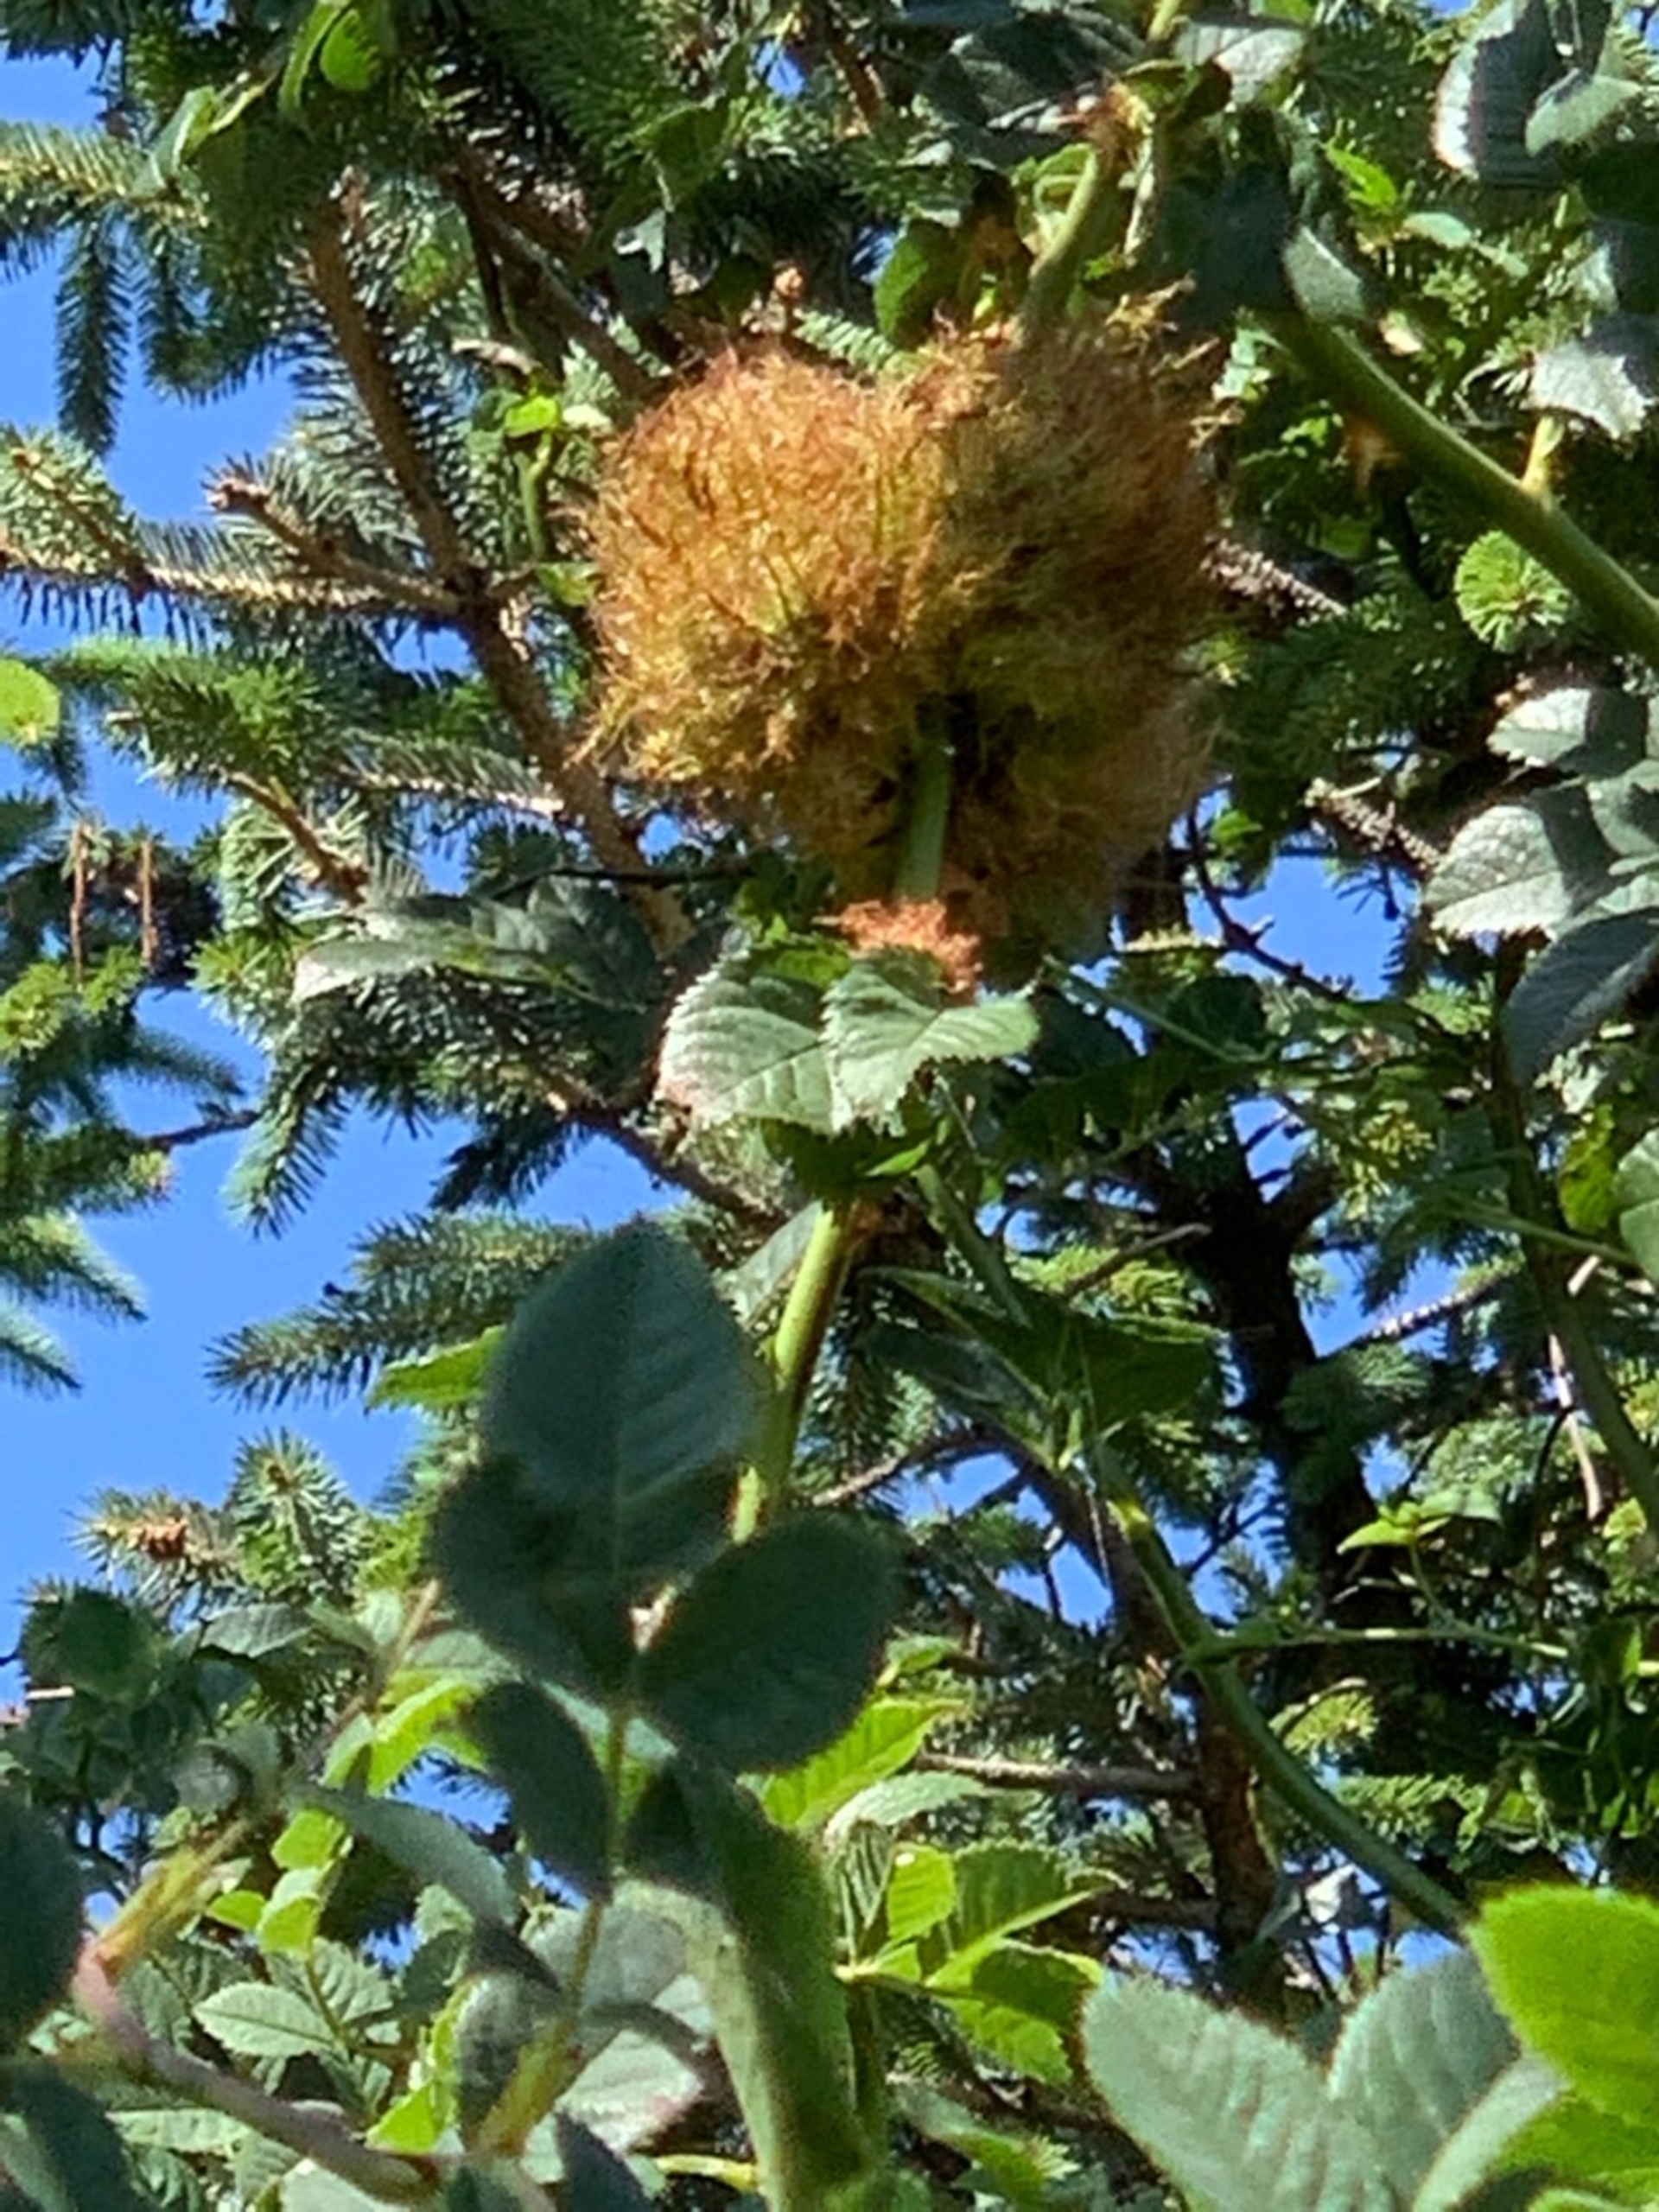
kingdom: Animalia
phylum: Arthropoda
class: Insecta
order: Hymenoptera
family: Cynipidae
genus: Diplolepis
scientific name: Diplolepis rosae
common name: Bedeguargalhveps
